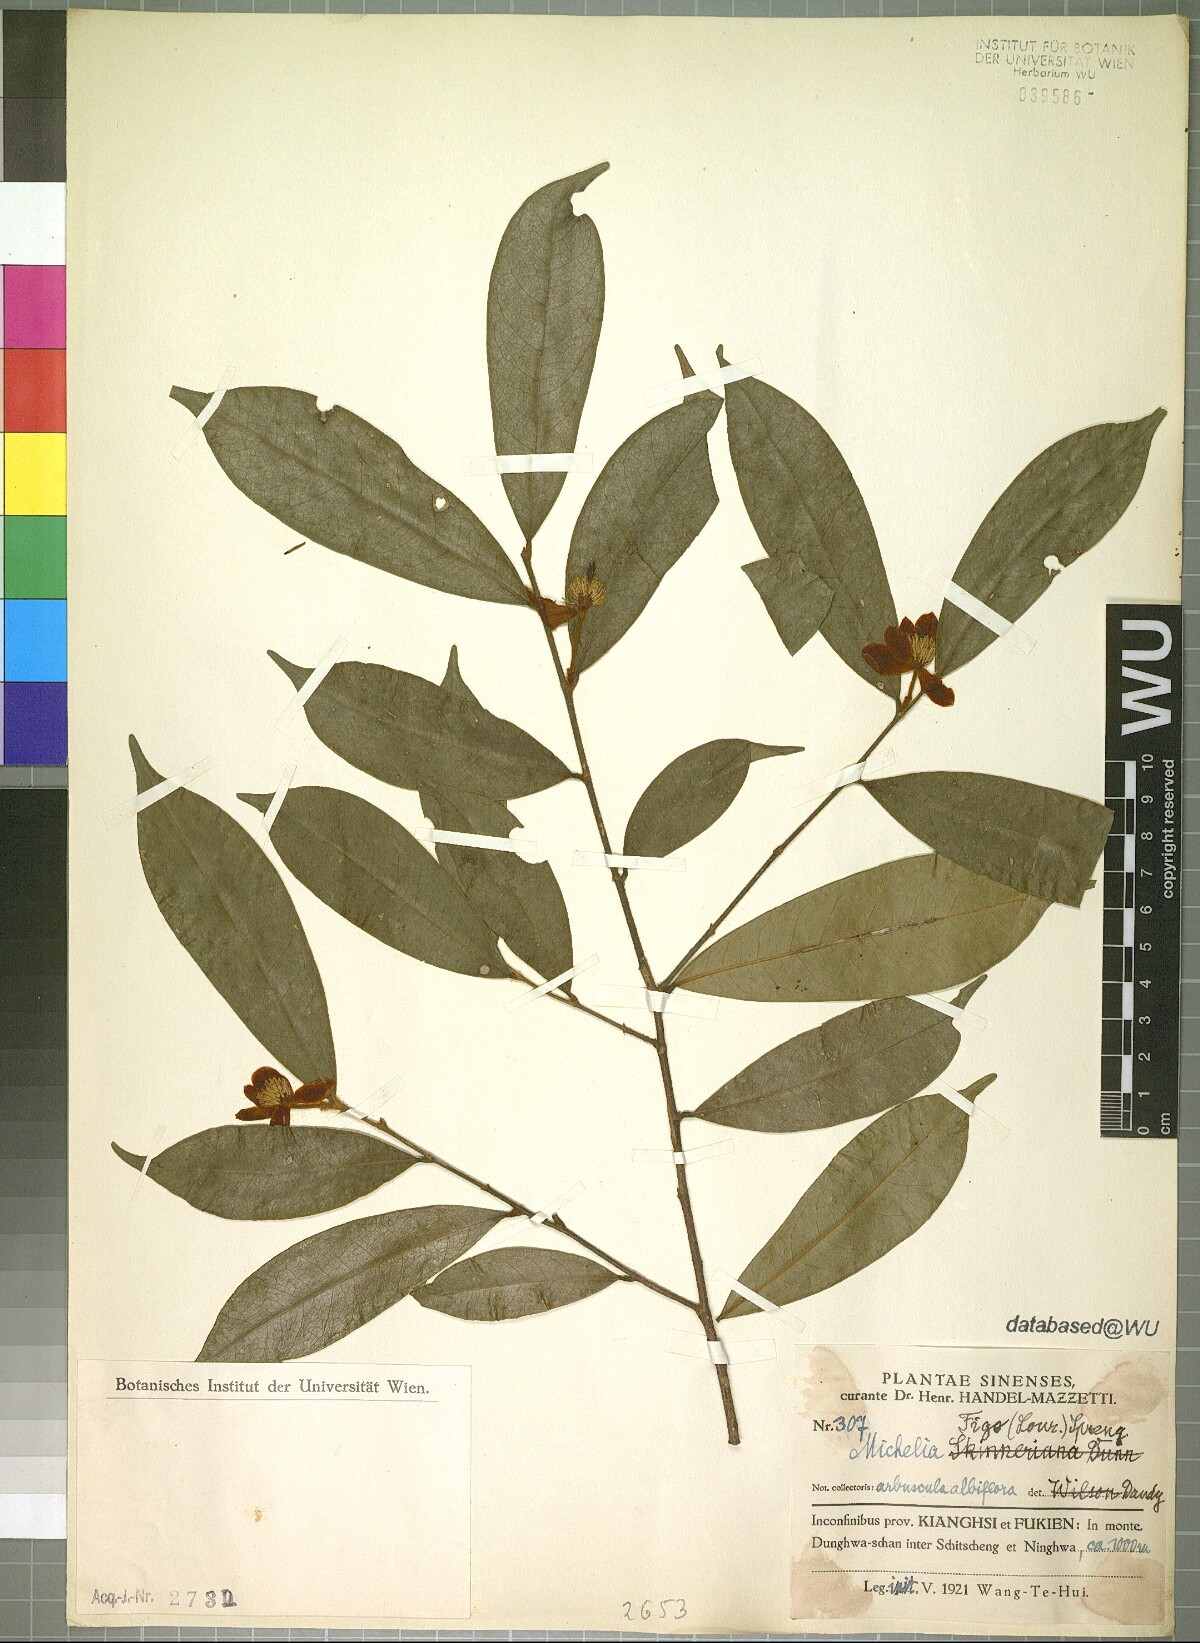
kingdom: Plantae
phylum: Tracheophyta
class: Magnoliopsida
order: Magnoliales
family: Magnoliaceae
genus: Magnolia
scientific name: Magnolia figo
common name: Banana shrub
